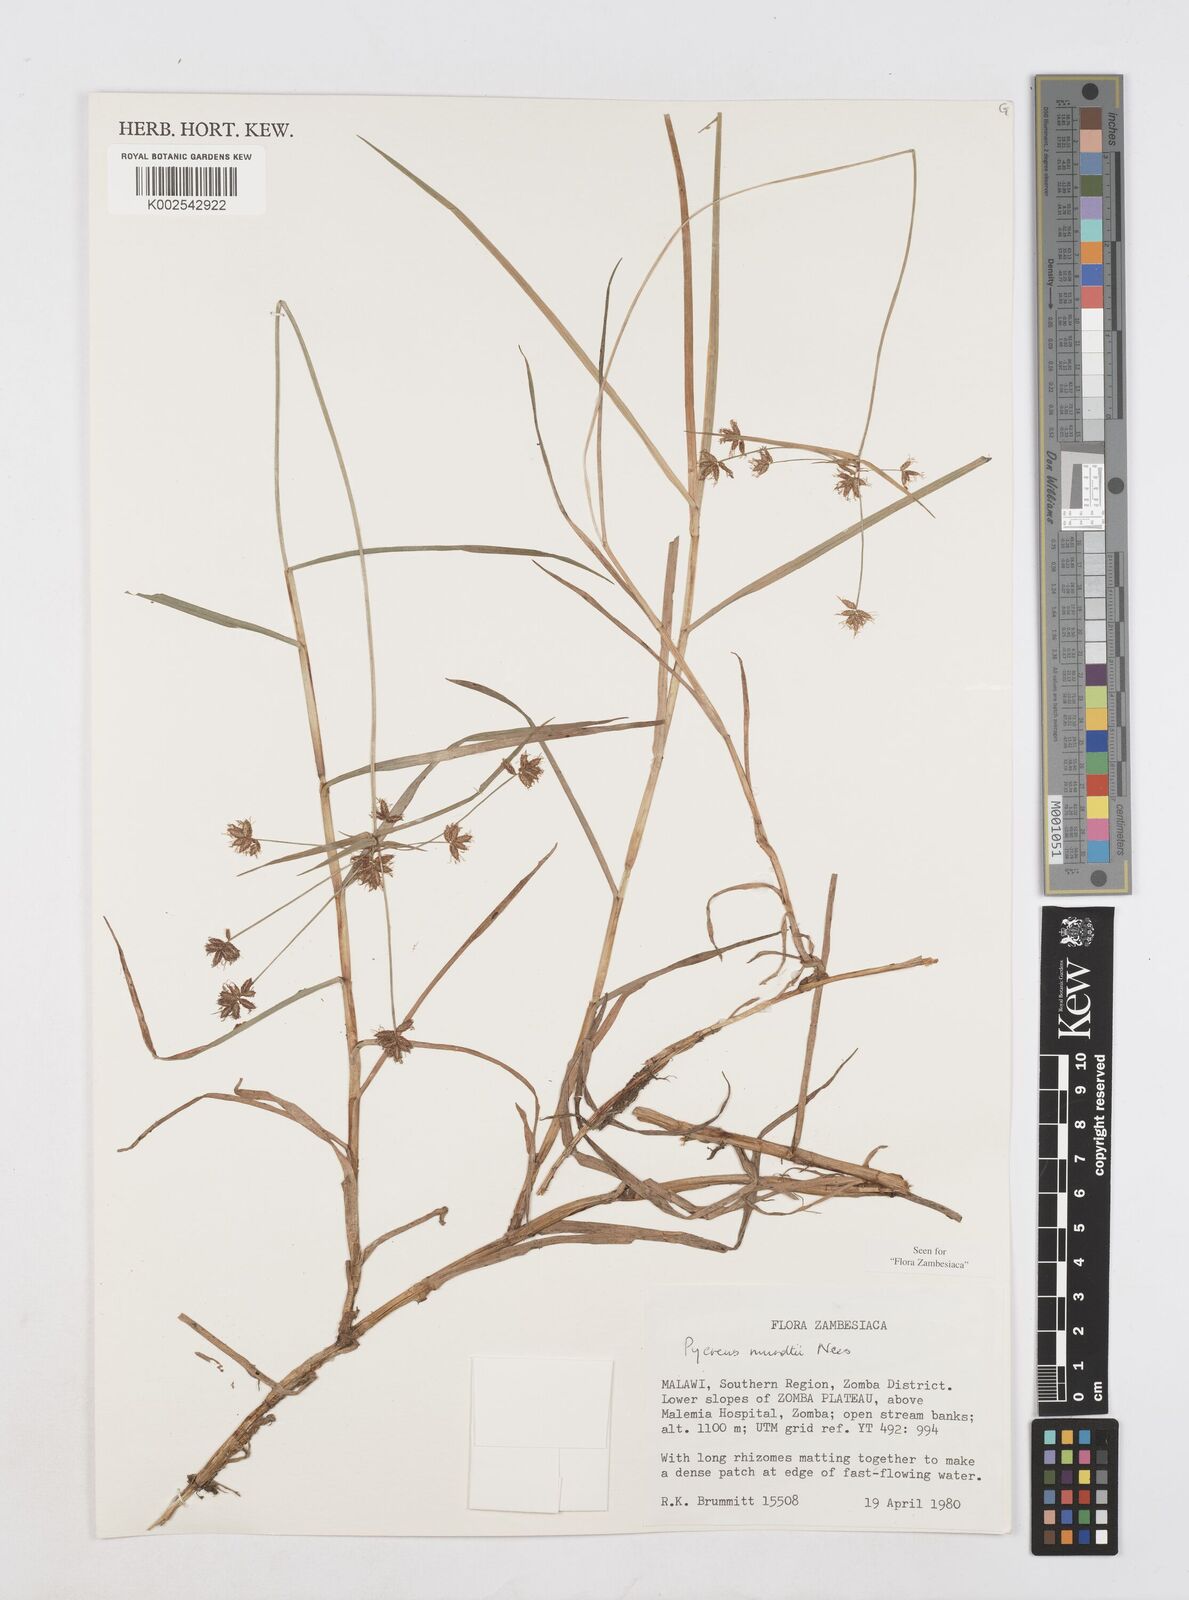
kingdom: Plantae
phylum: Tracheophyta
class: Liliopsida
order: Poales
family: Cyperaceae
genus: Cyperus
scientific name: Cyperus mundii
